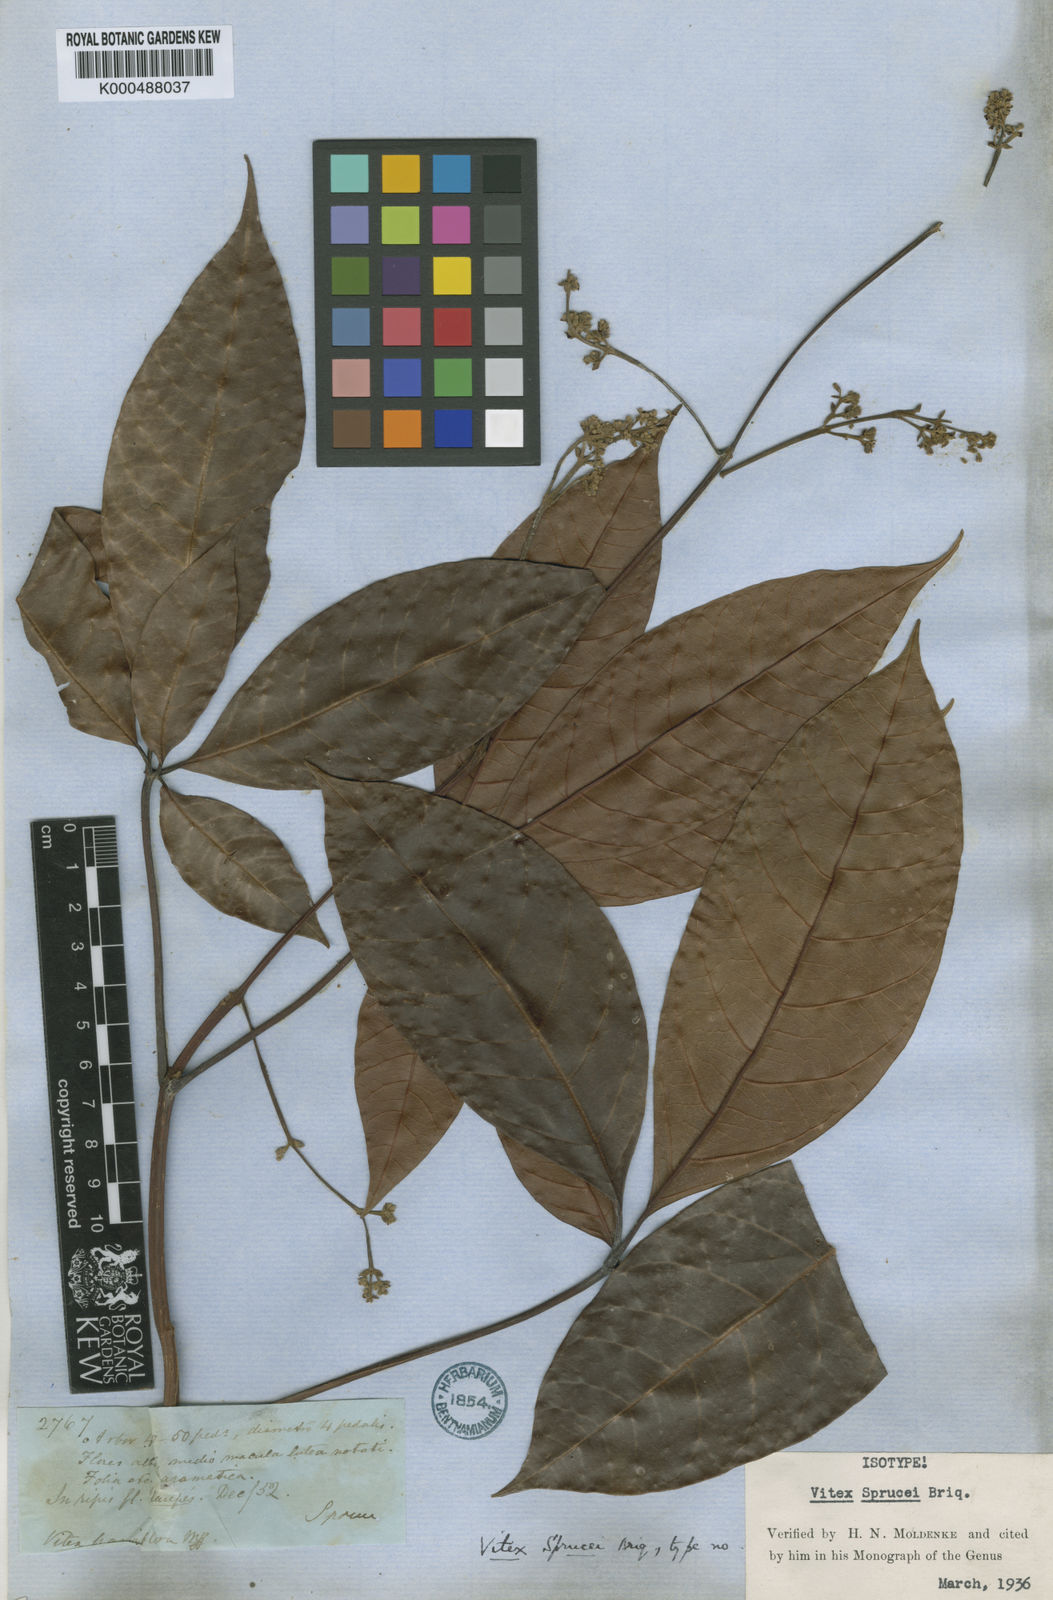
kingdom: Plantae
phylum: Tracheophyta
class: Magnoliopsida
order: Lamiales
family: Lamiaceae
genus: Vitex
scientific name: Vitex sprucei
